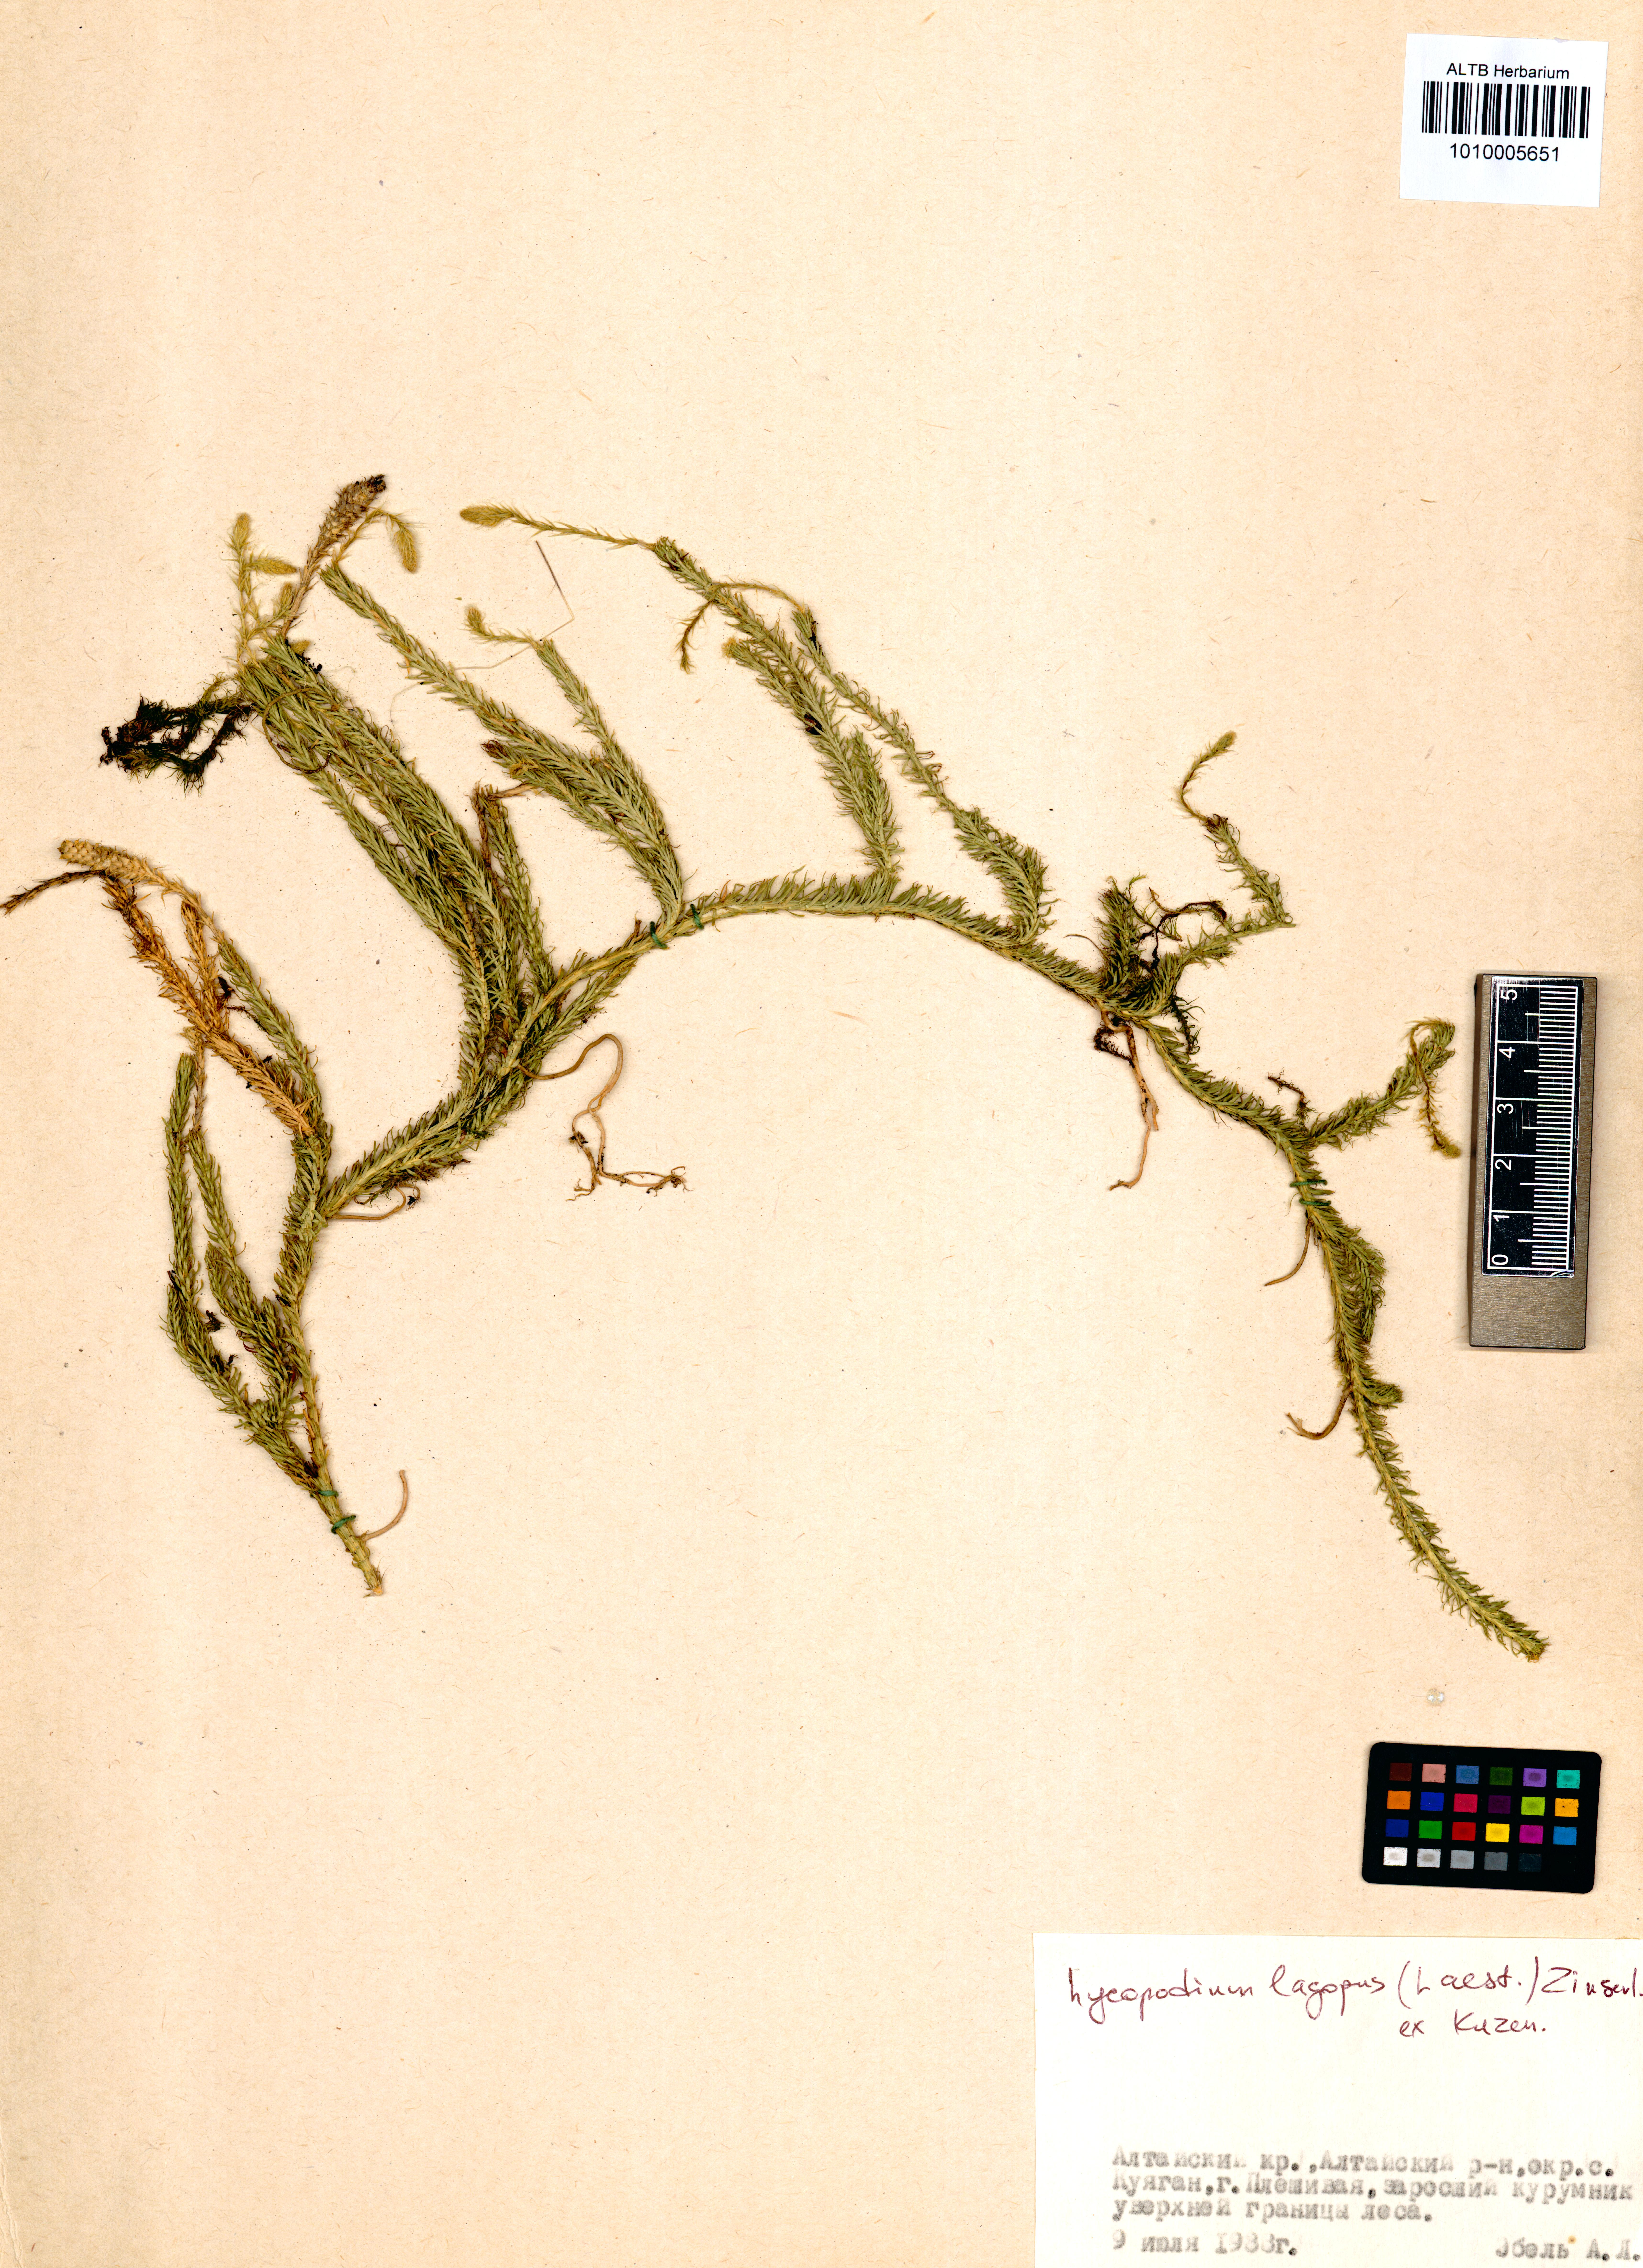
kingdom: Plantae
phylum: Tracheophyta
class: Lycopodiopsida
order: Lycopodiales
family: Lycopodiaceae
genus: Lycopodium
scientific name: Lycopodium lagopus
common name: One-cone clubmoss
